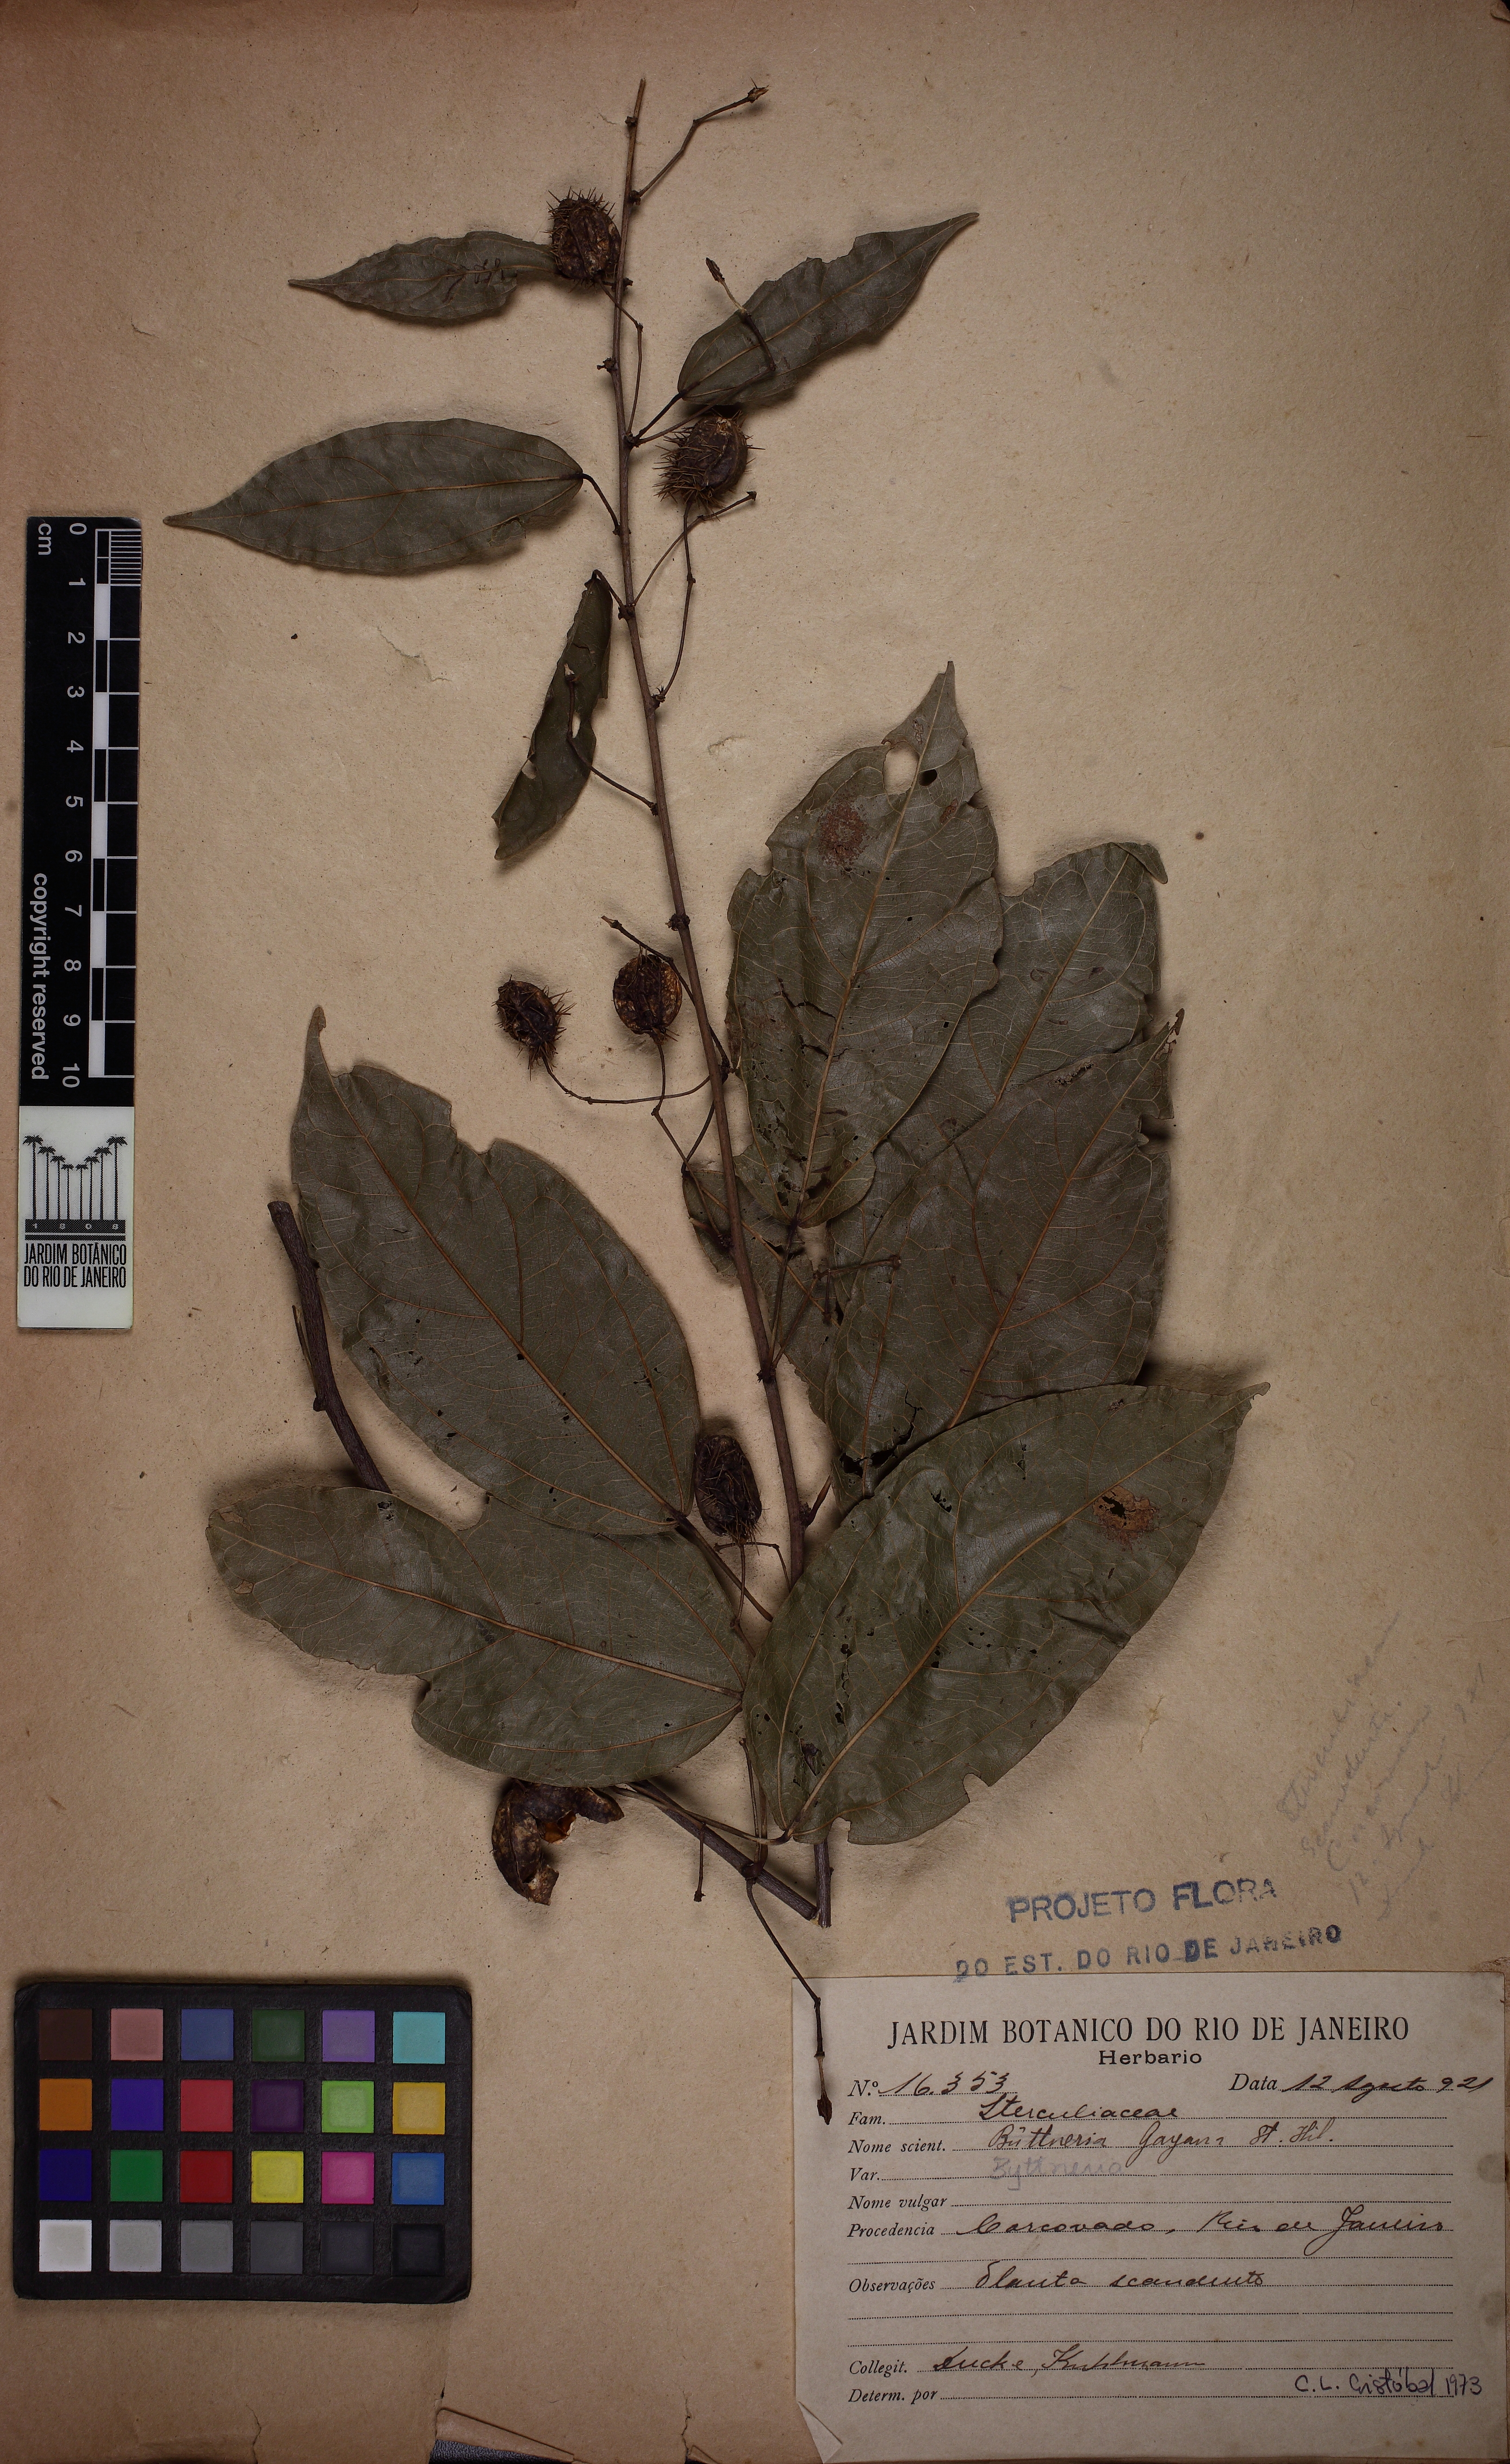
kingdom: Plantae
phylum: Tracheophyta
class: Magnoliopsida
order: Malvales
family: Malvaceae
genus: Byttneria
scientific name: Byttneria
